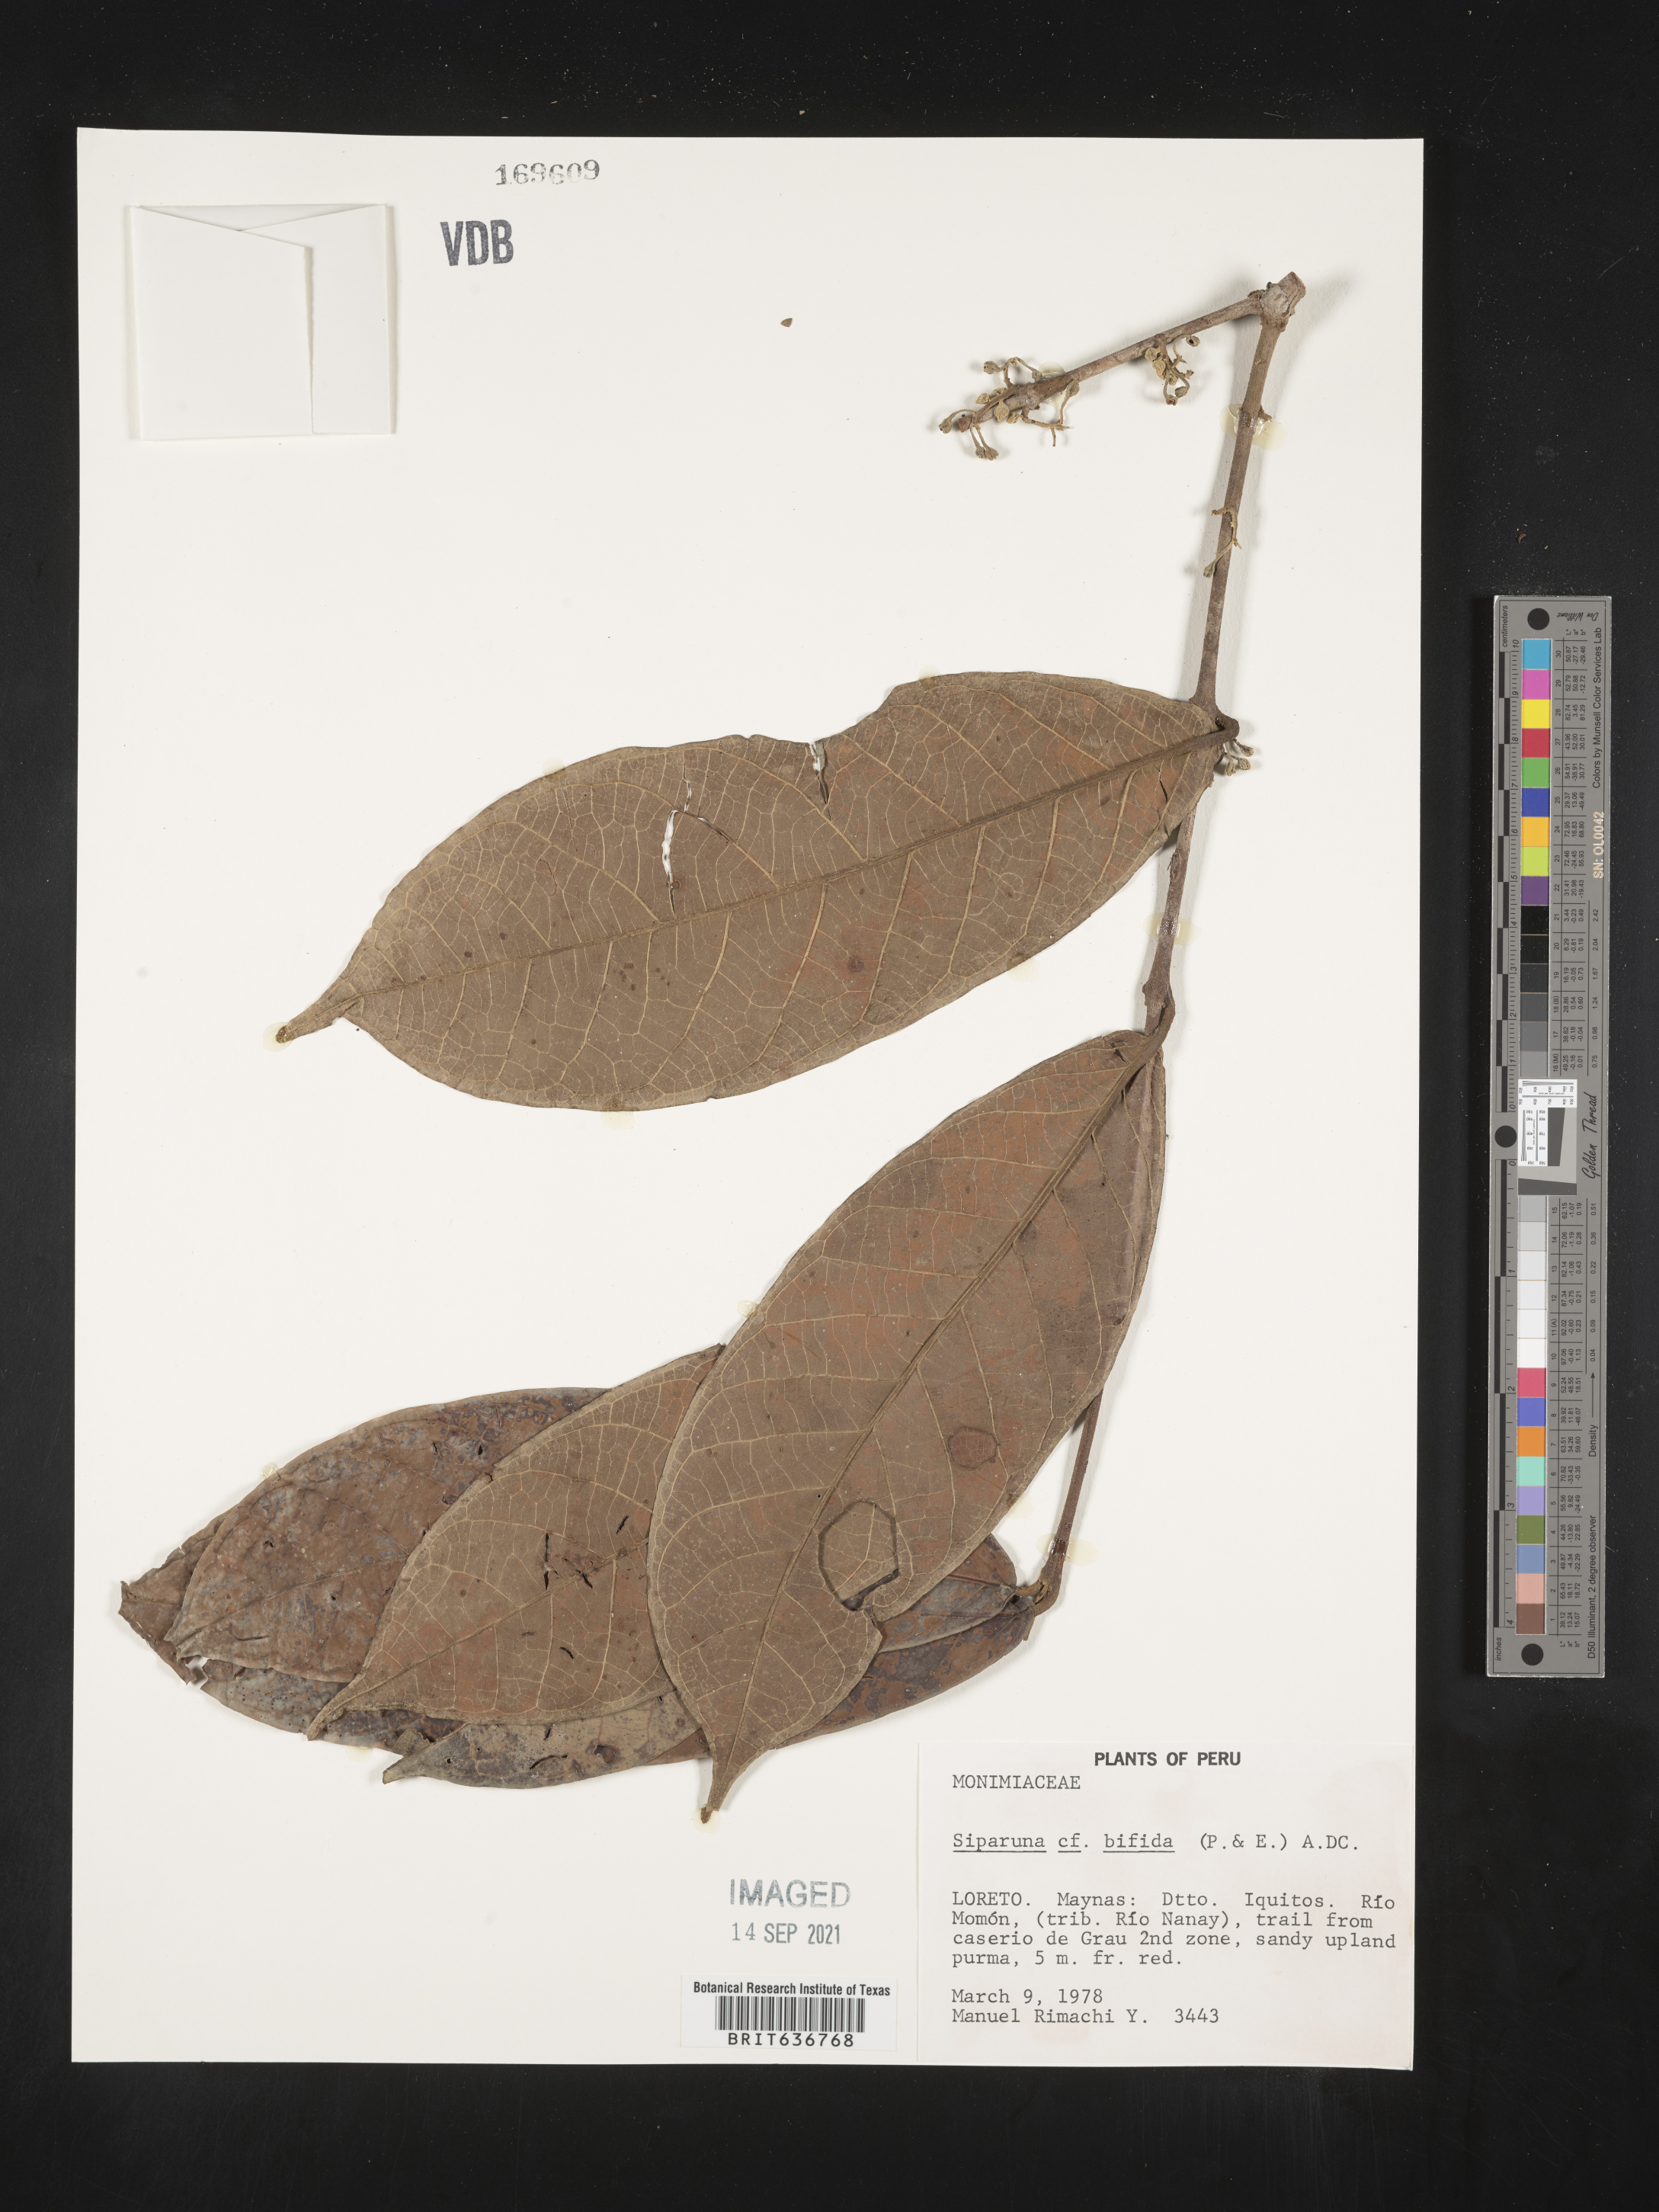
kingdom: Plantae
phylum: Tracheophyta
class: Magnoliopsida
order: Laurales
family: Siparunaceae
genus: Siparuna
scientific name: Siparuna
